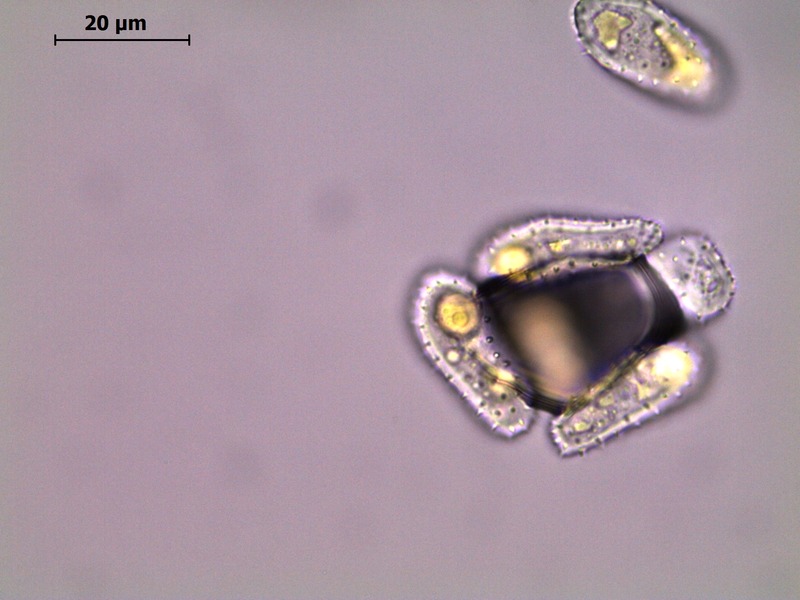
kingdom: Fungi
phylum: Basidiomycota
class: Pucciniomycetes
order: Pucciniales
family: Pucciniastraceae
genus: Melampsoridium
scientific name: Melampsoridium hiratsukanum
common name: Alder rust
